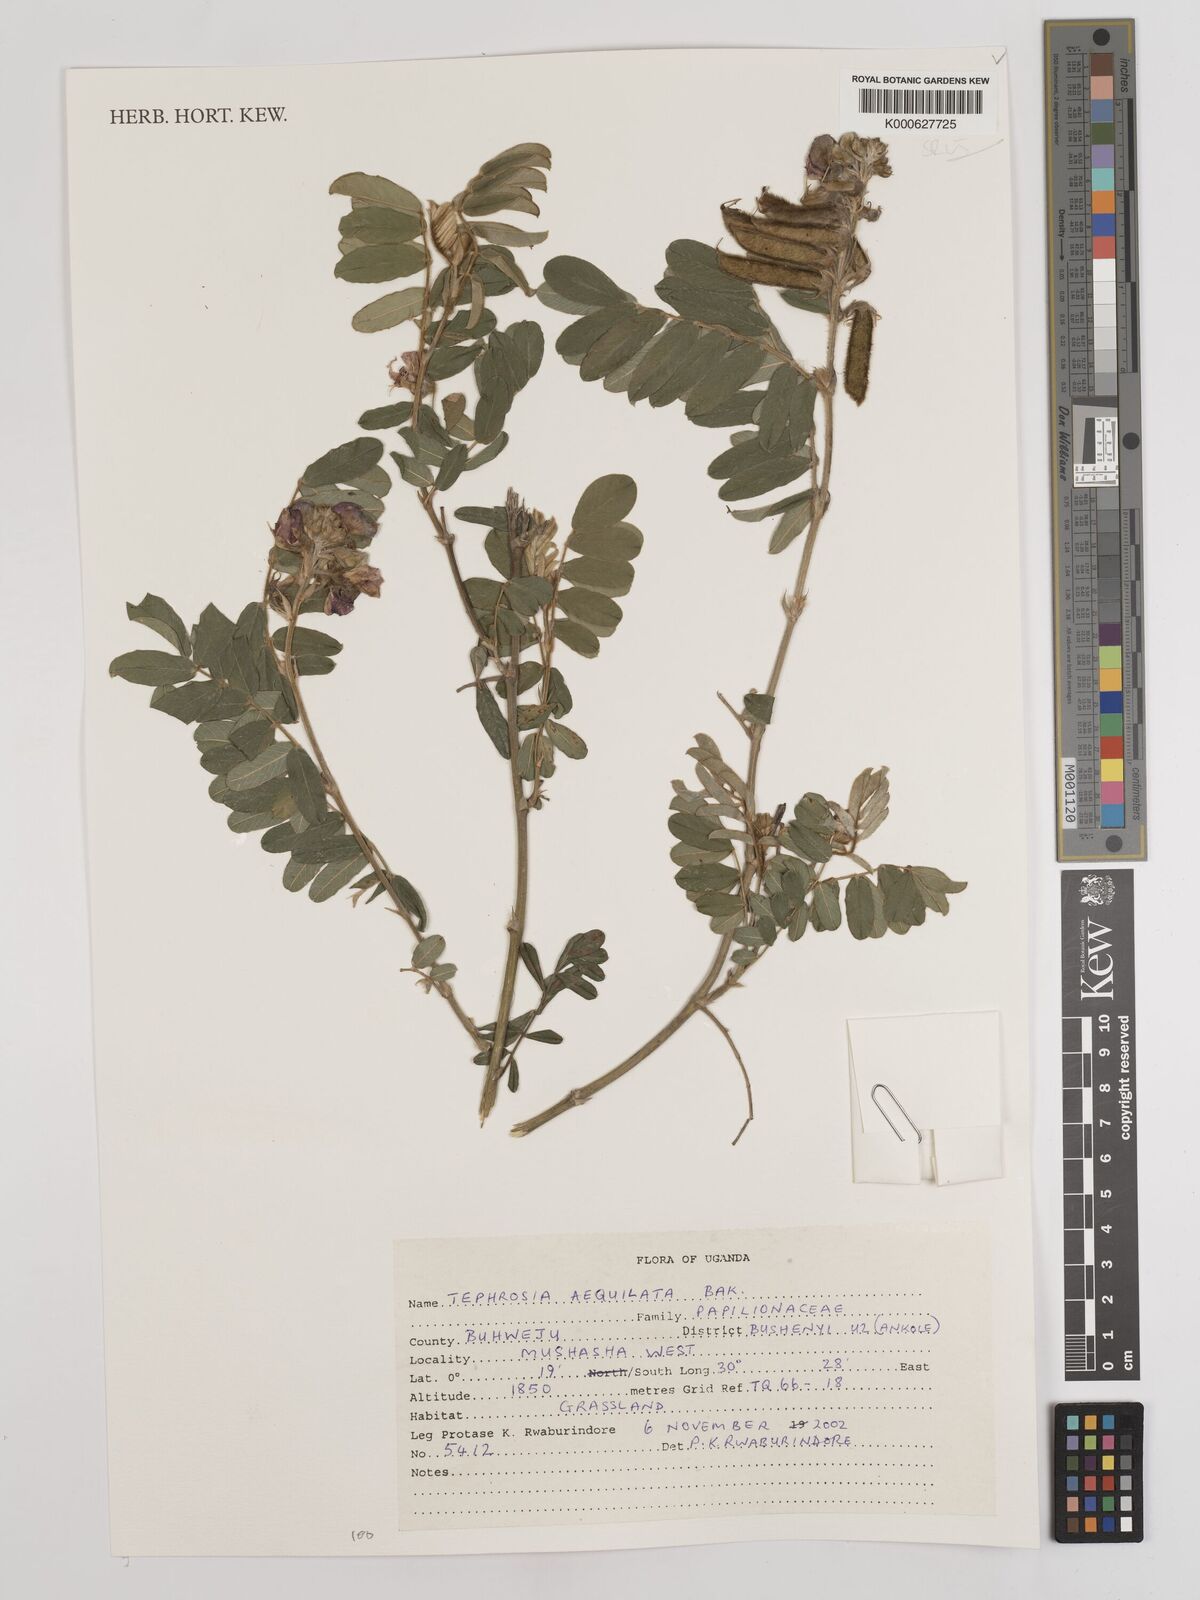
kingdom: Plantae
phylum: Tracheophyta
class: Magnoliopsida
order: Fabales
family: Fabaceae
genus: Tephrosia
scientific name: Tephrosia aequilata
